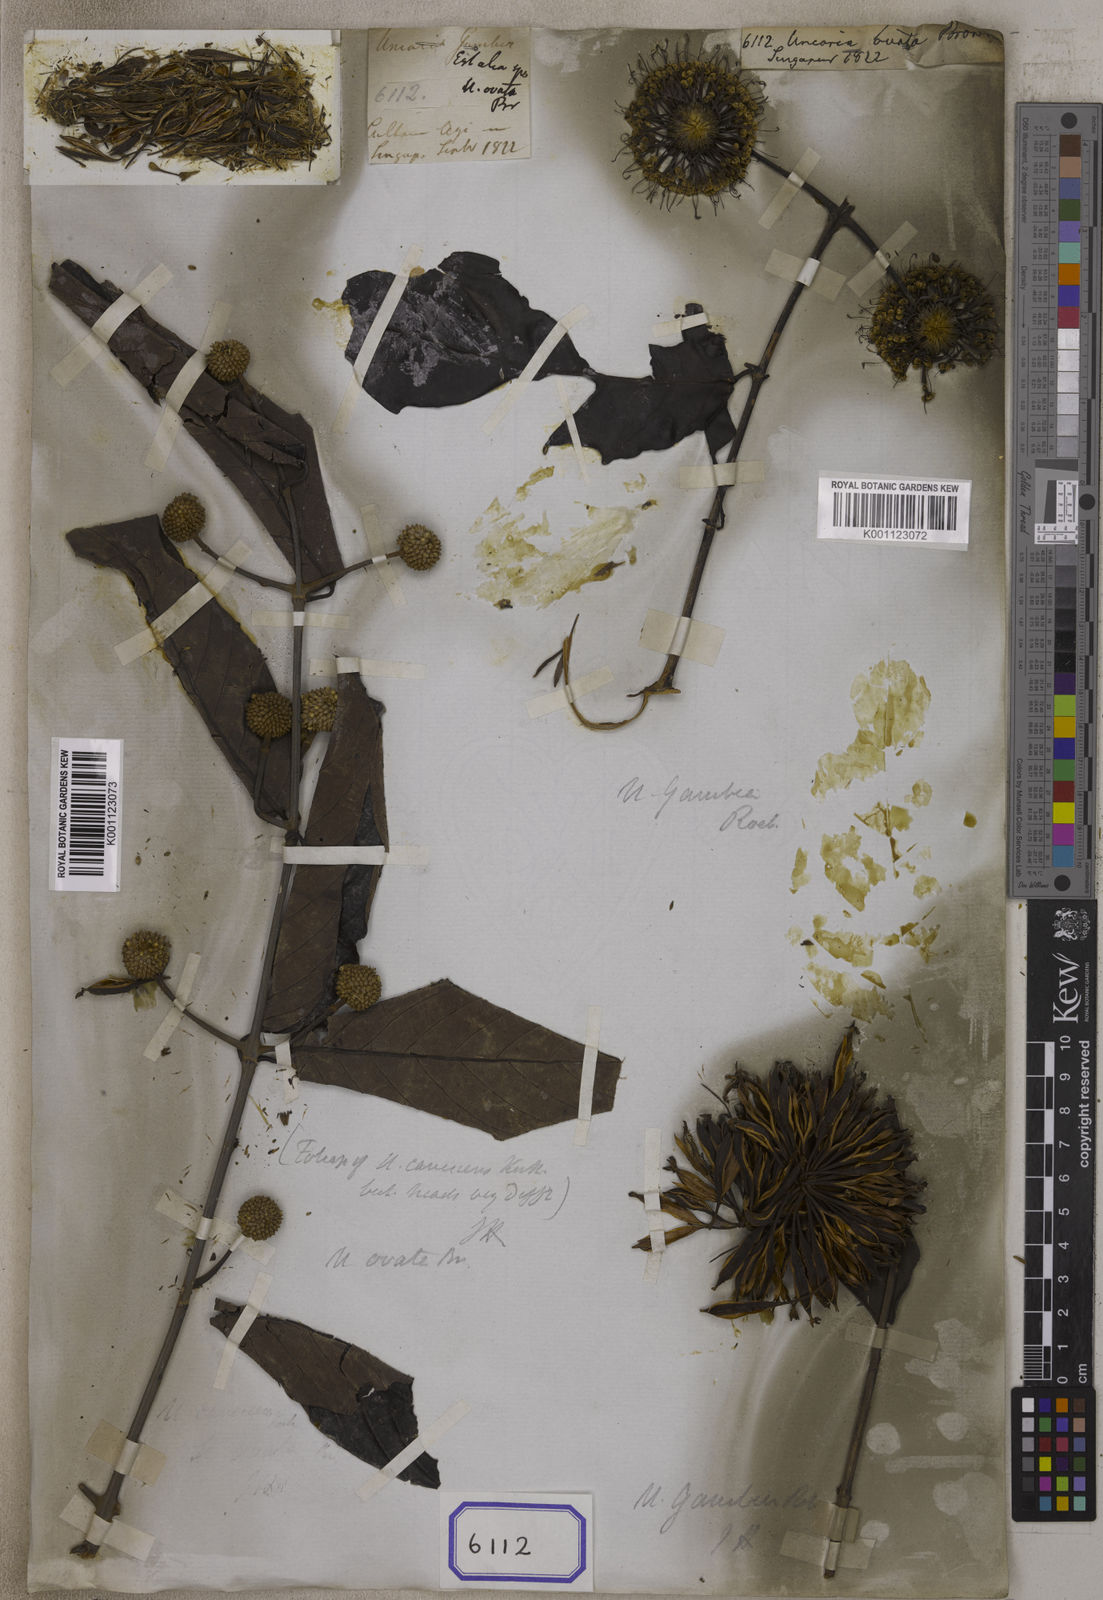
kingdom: Plantae
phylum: Tracheophyta
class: Magnoliopsida
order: Gentianales
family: Rubiaceae
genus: Uncaria
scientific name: Uncaria
